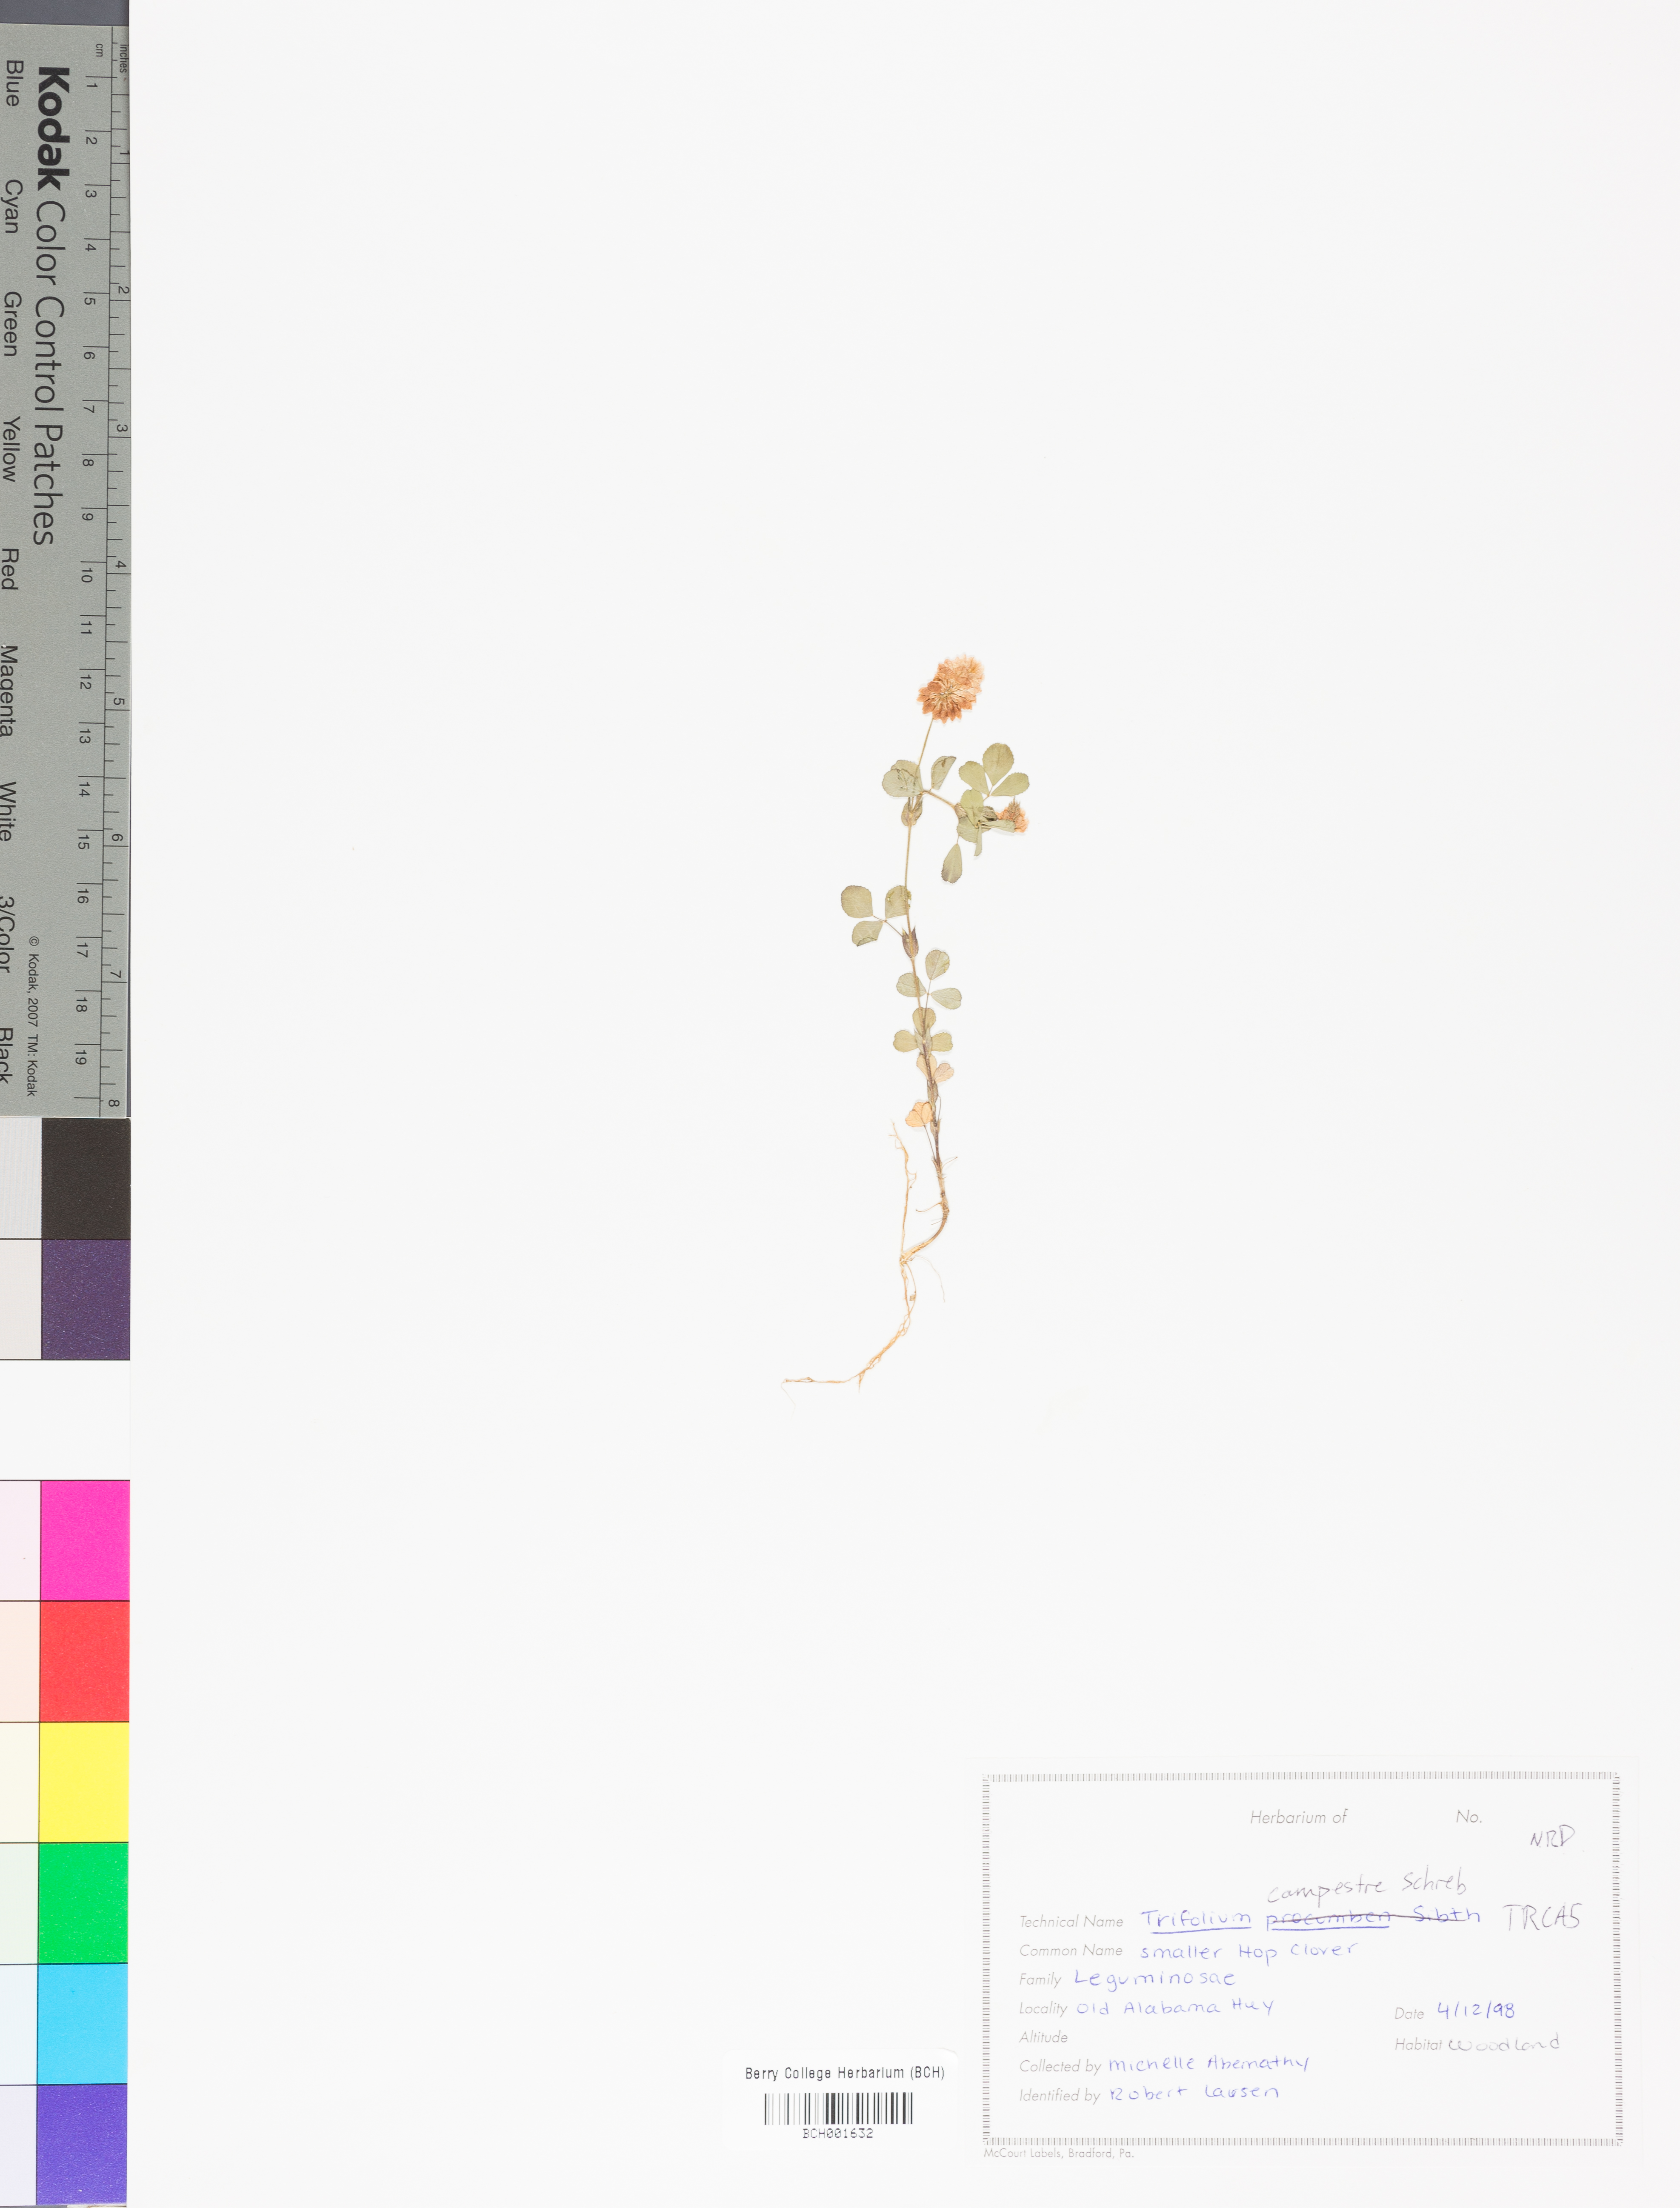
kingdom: Plantae
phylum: Tracheophyta
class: Magnoliopsida
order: Fabales
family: Fabaceae
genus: Trifolium
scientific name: Trifolium campestre
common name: Field clover
